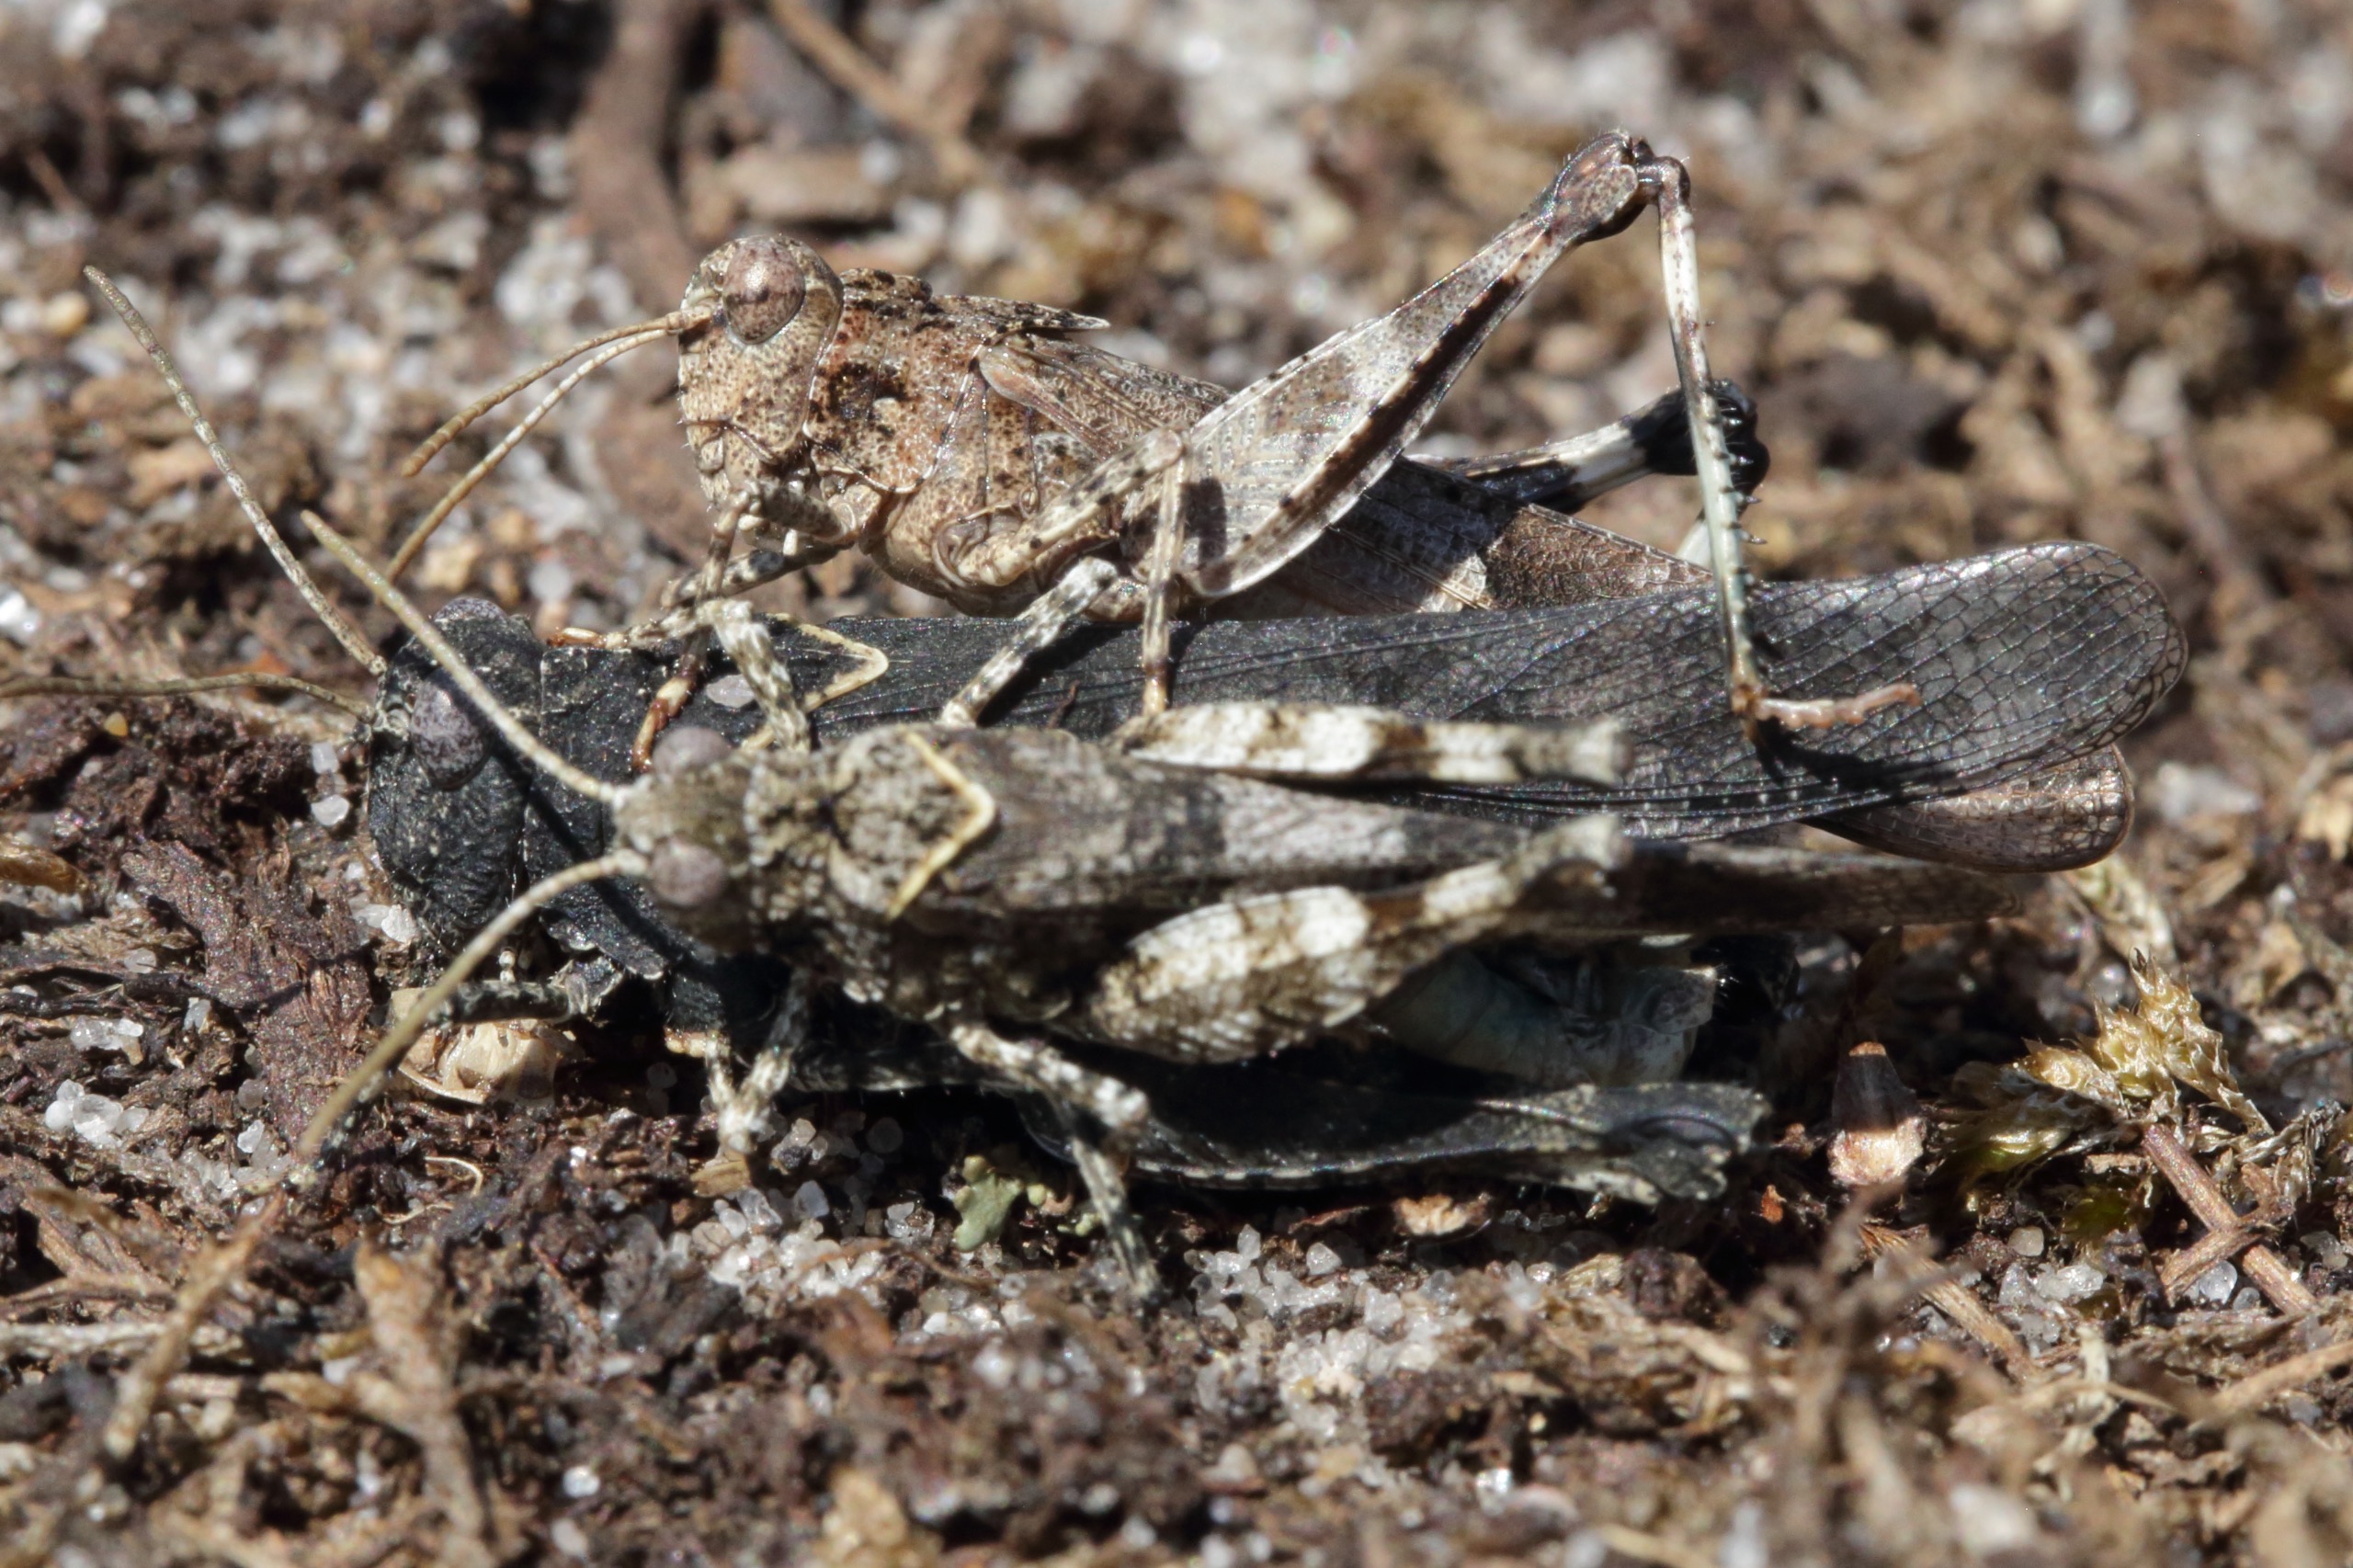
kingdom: Animalia
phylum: Arthropoda
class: Insecta
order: Orthoptera
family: Acrididae
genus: Oedipoda
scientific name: Oedipoda caerulescens
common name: Blåvinget ørkengræshoppe
